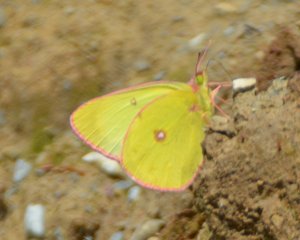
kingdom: Animalia
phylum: Arthropoda
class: Insecta
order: Lepidoptera
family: Pieridae
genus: Colias
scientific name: Colias interior
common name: Pink-edged Sulphur
